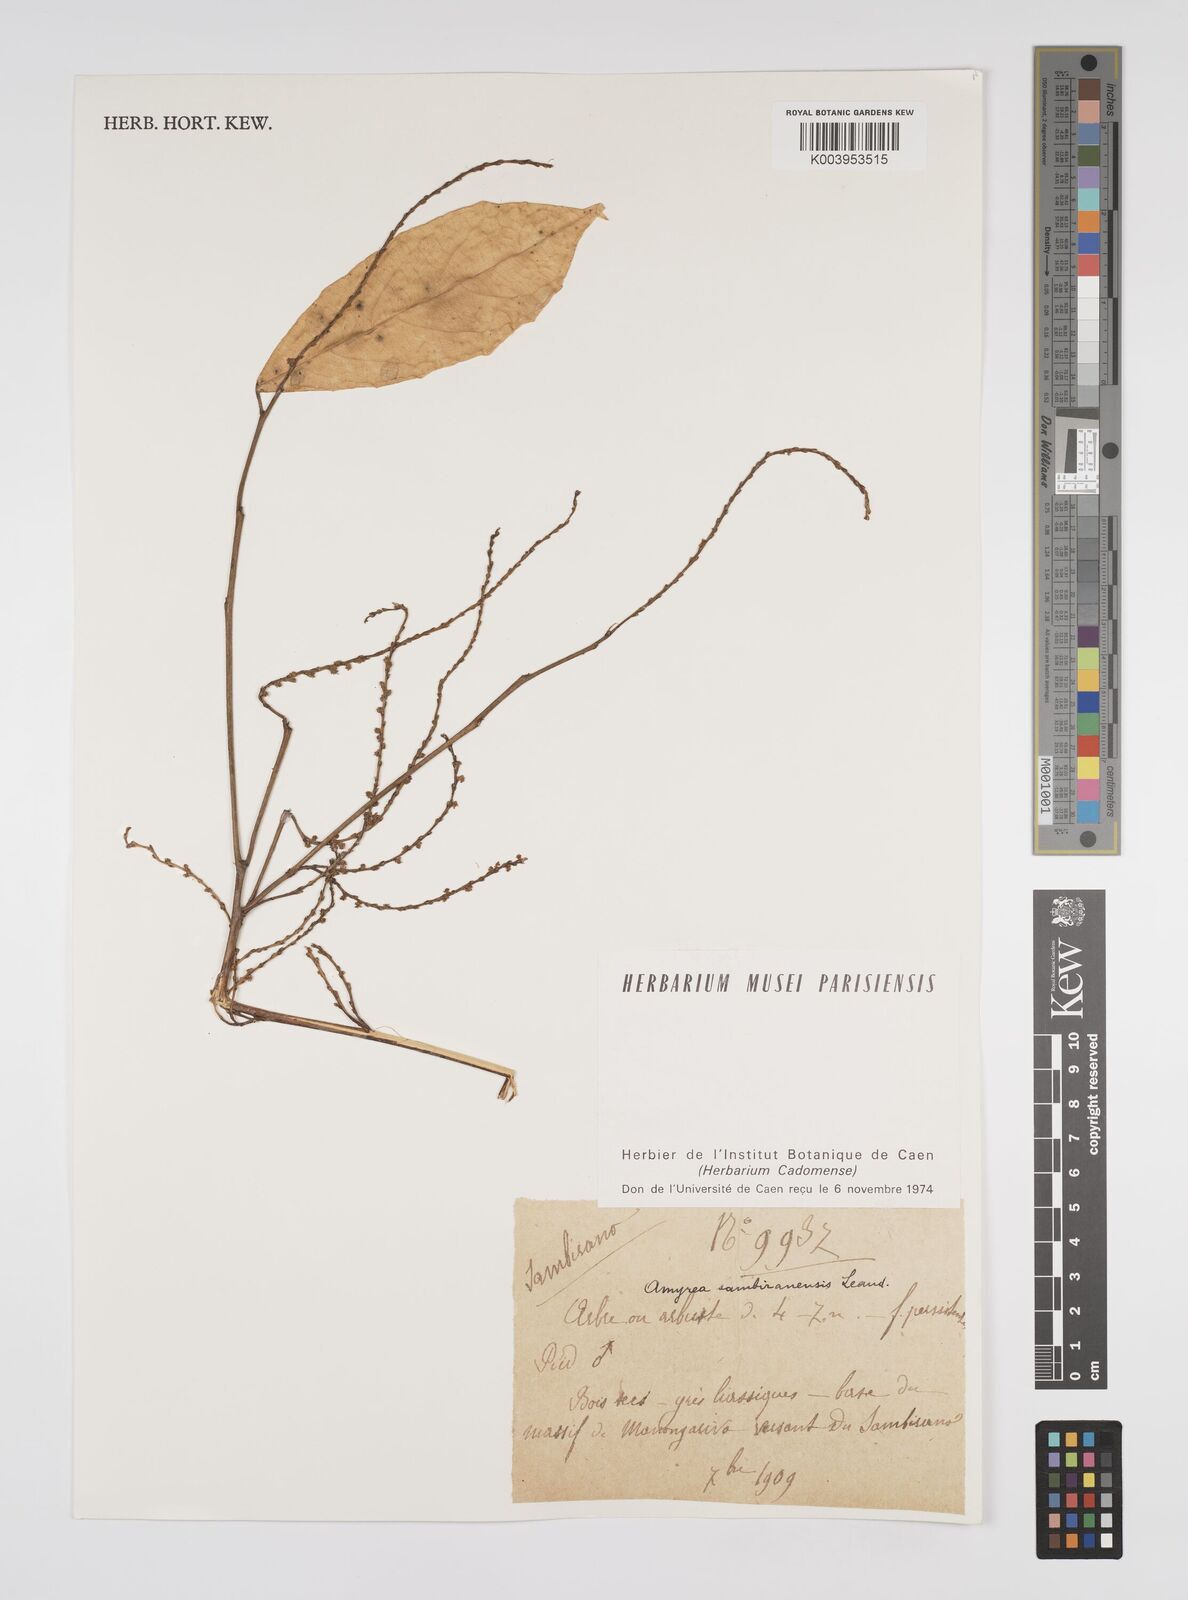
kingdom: Plantae
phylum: Tracheophyta
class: Magnoliopsida
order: Malpighiales
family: Euphorbiaceae
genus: Amyrea
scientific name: Amyrea sambiranensis
